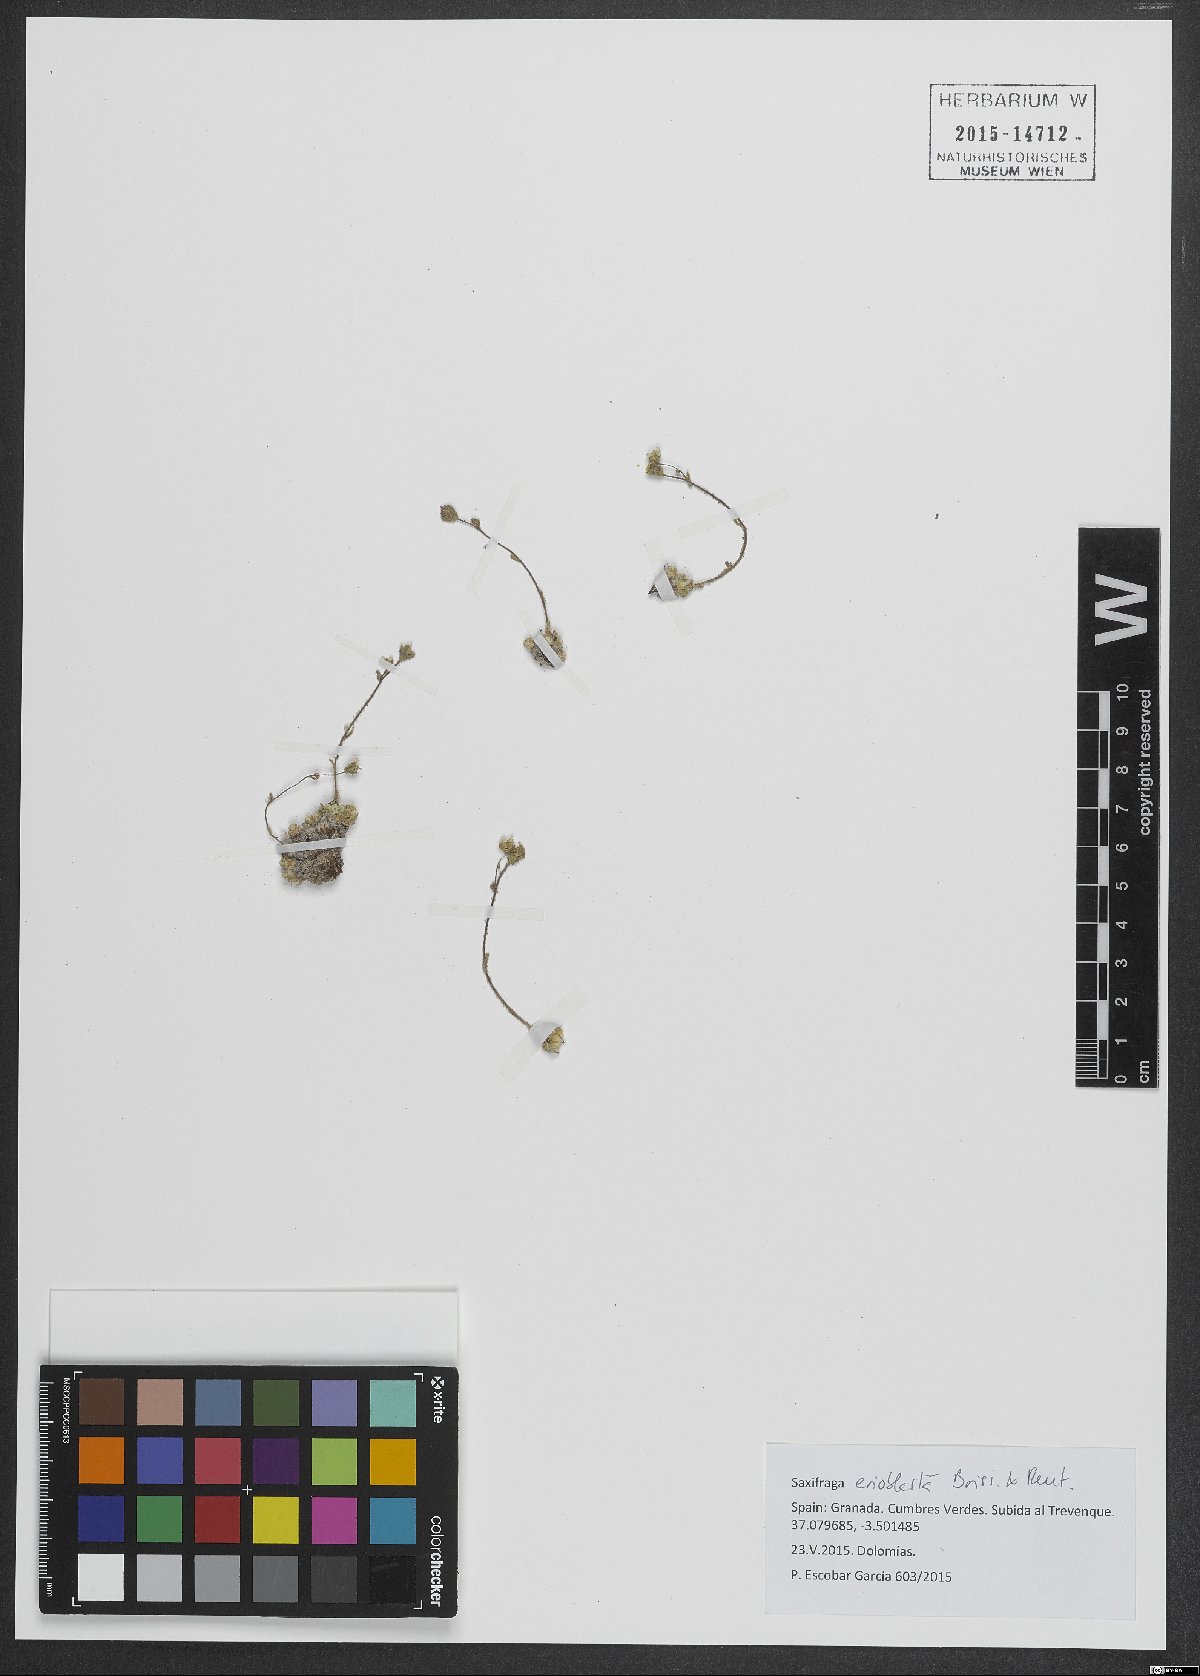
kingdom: Plantae
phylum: Tracheophyta
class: Magnoliopsida
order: Saxifragales
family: Saxifragaceae
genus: Saxifraga
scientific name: Saxifraga erioblasta
